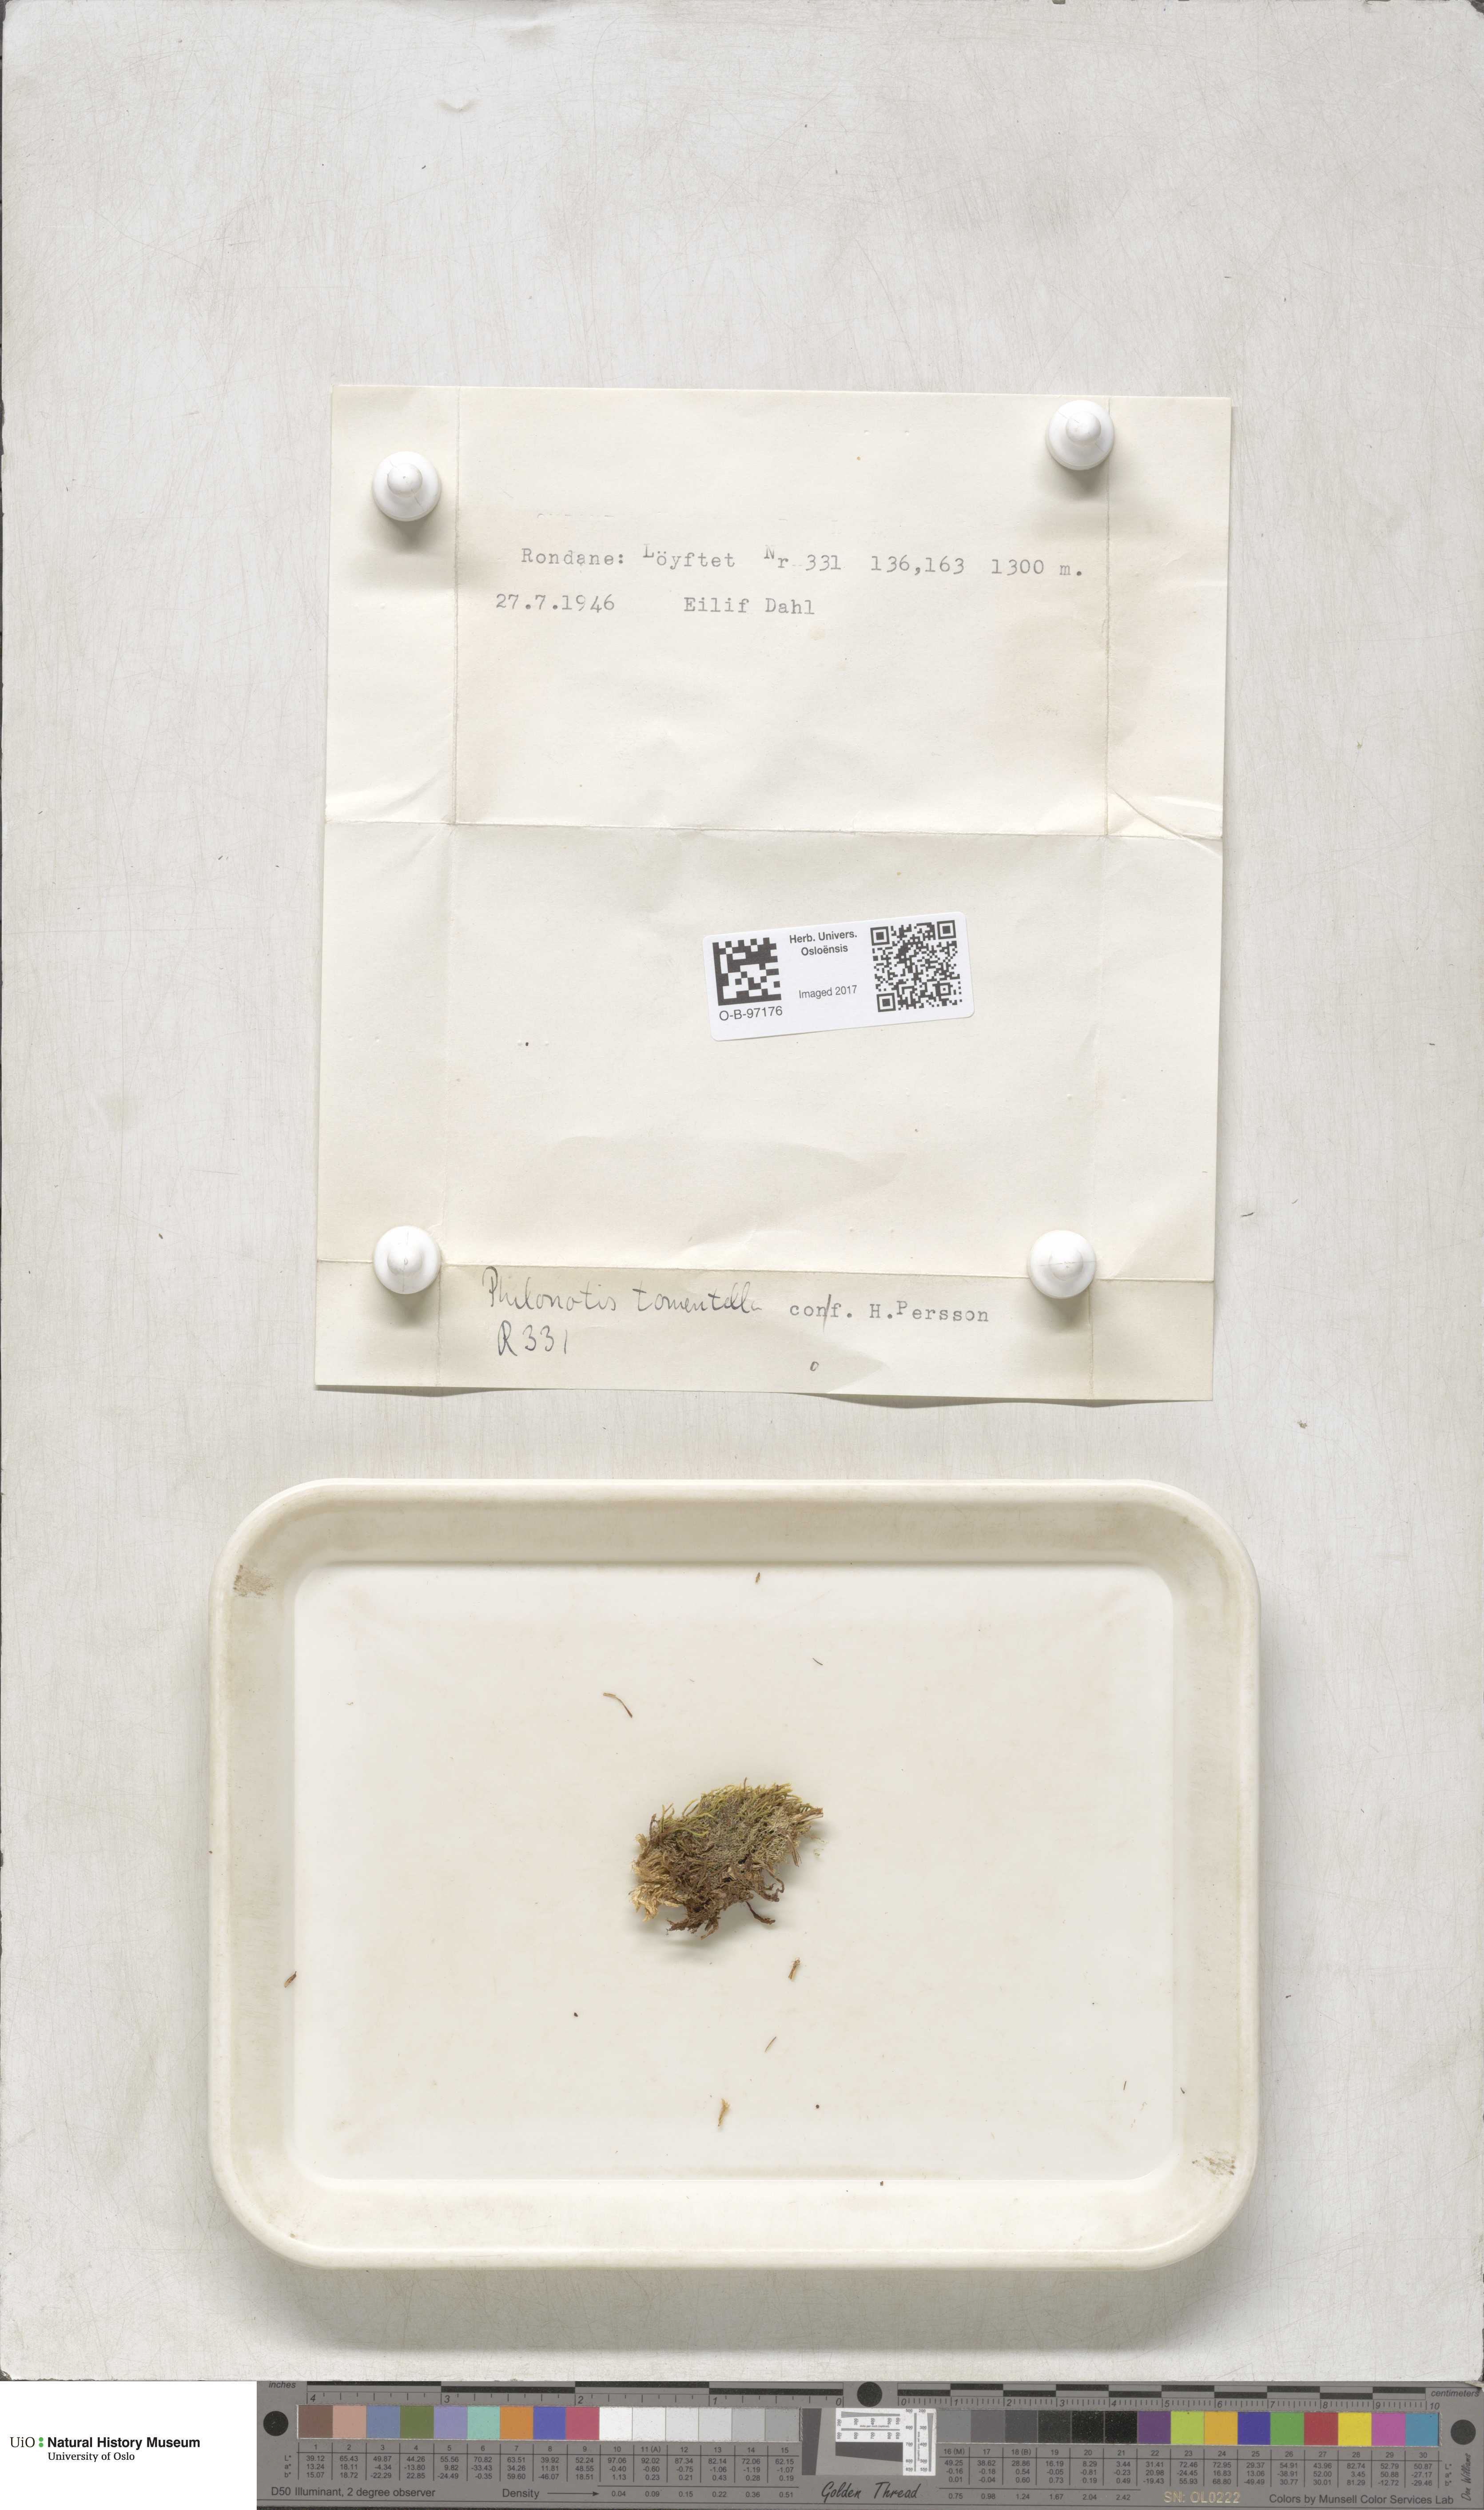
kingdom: Plantae
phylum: Bryophyta
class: Bryopsida
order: Bartramiales
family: Bartramiaceae
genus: Philonotis
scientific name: Philonotis tomentella
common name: Woolly apple moss
